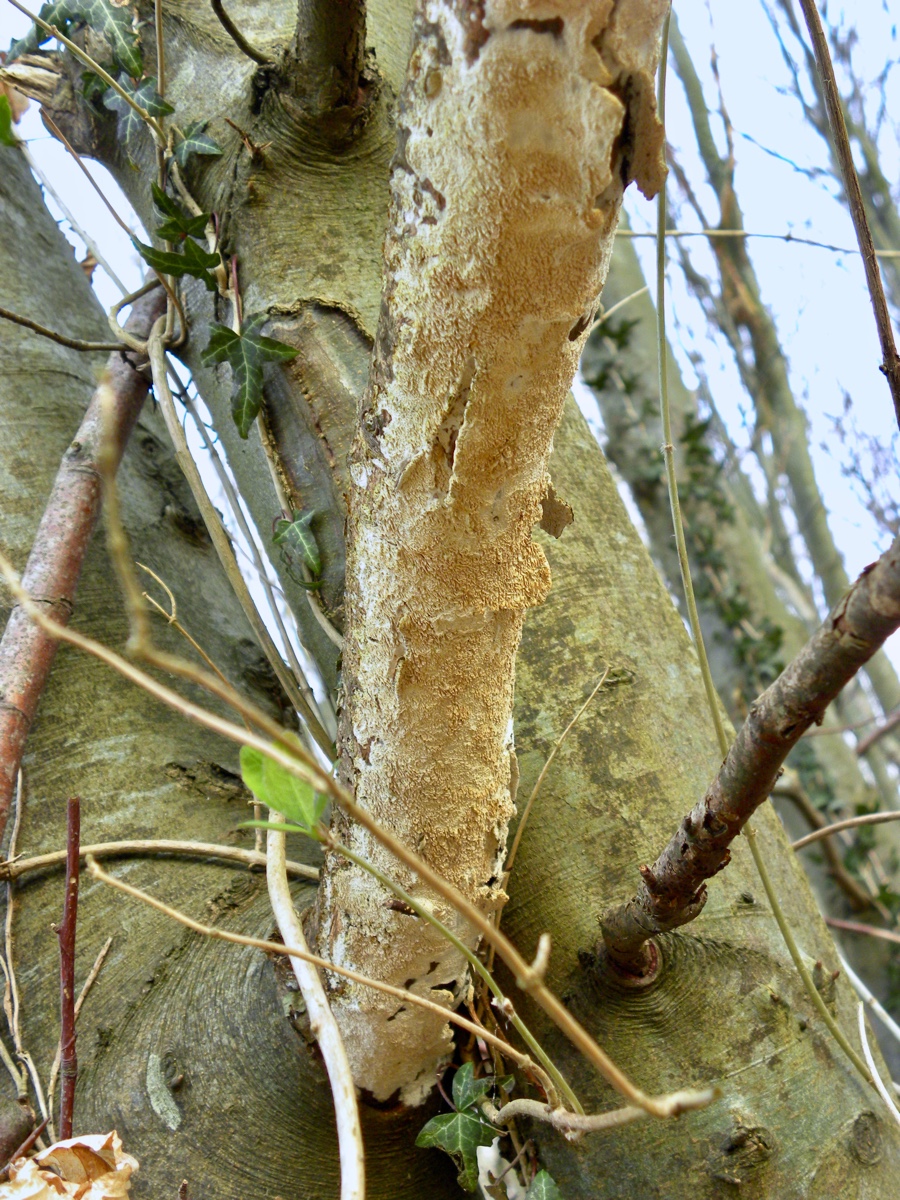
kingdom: Fungi
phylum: Basidiomycota
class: Agaricomycetes
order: Hymenochaetales
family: Schizoporaceae
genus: Schizopora
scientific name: Schizopora paradoxa
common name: hvid tandsvamp
